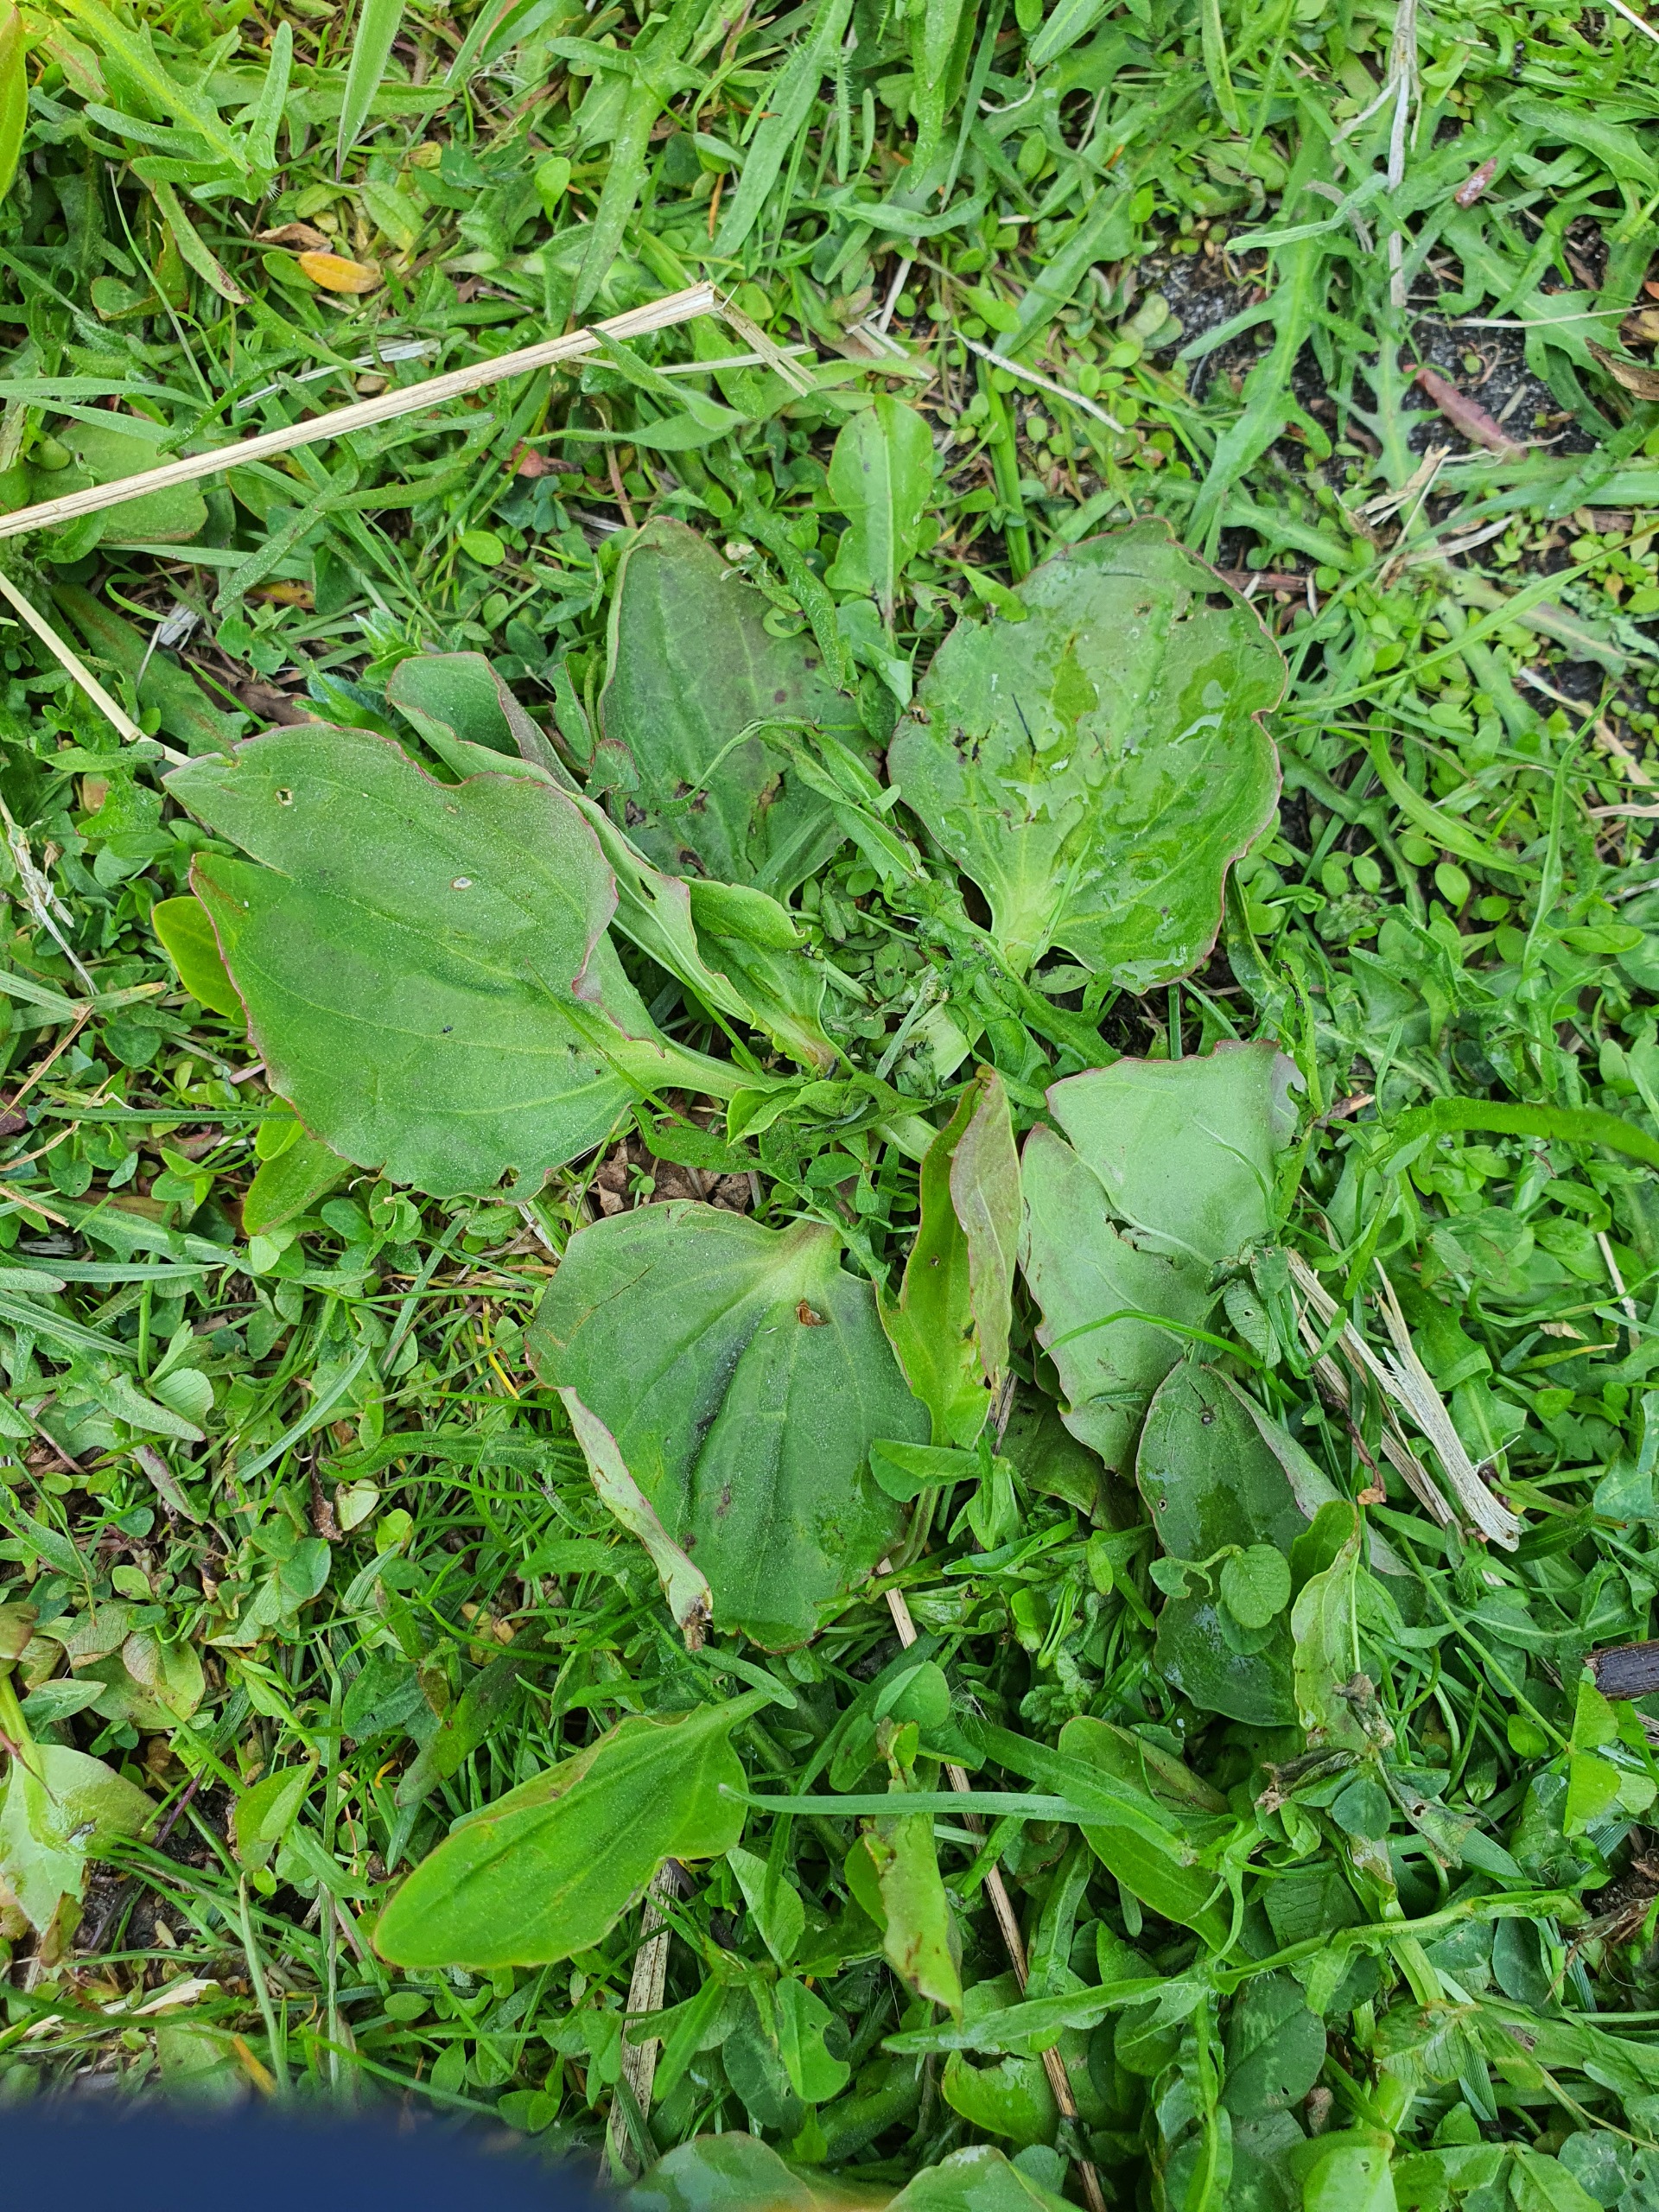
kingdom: Plantae
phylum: Tracheophyta
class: Magnoliopsida
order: Lamiales
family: Plantaginaceae
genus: Plantago
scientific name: Plantago major
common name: Glat vejbred
